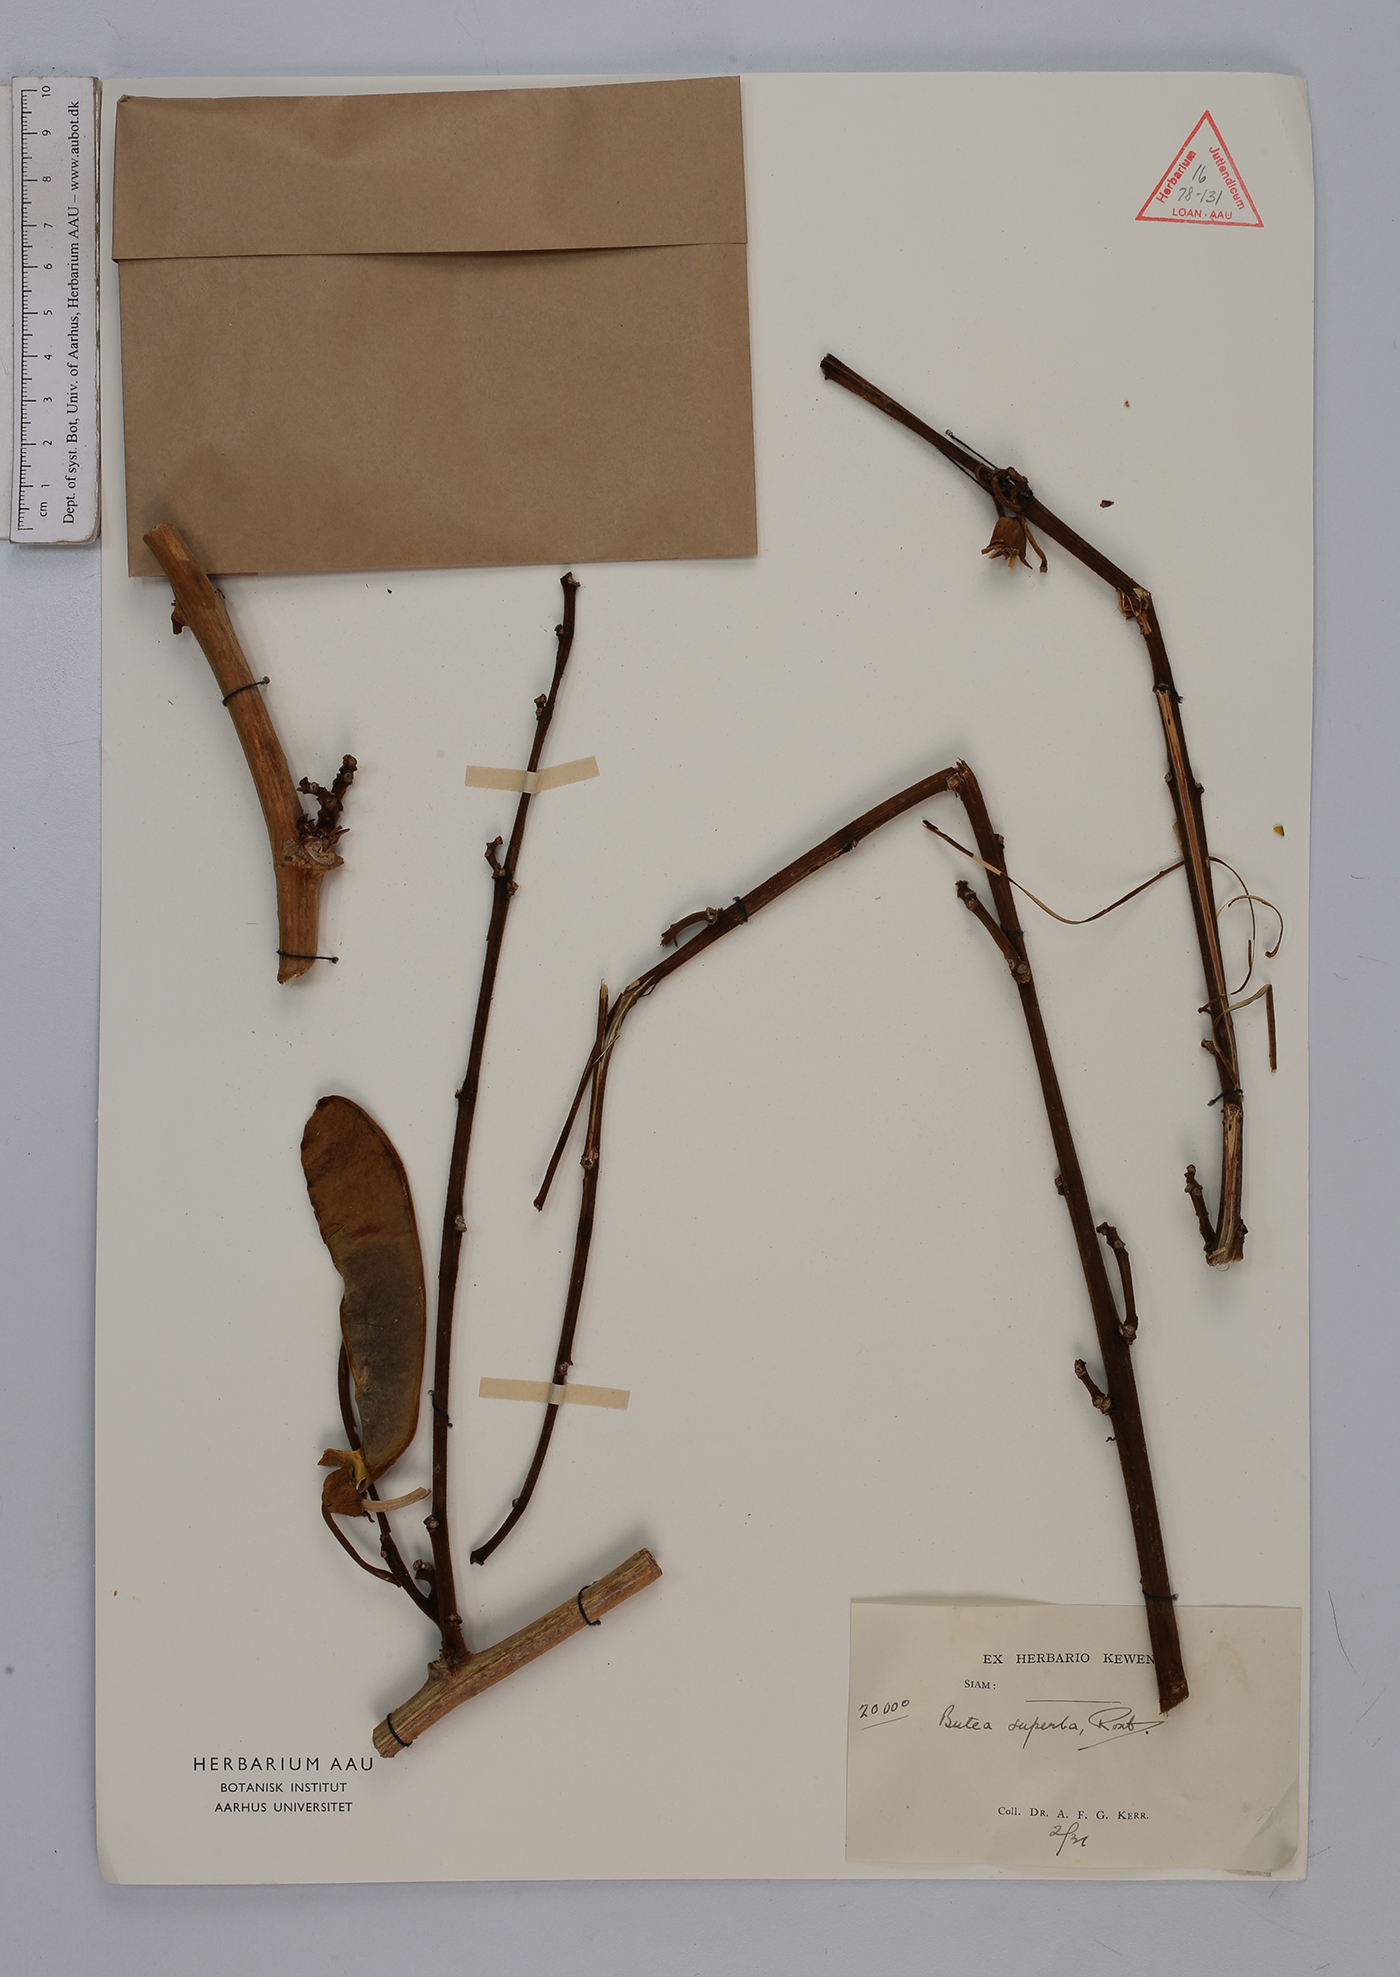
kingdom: Plantae
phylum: Tracheophyta
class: Magnoliopsida
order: Fabales
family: Fabaceae
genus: Butea
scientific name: Butea superba
